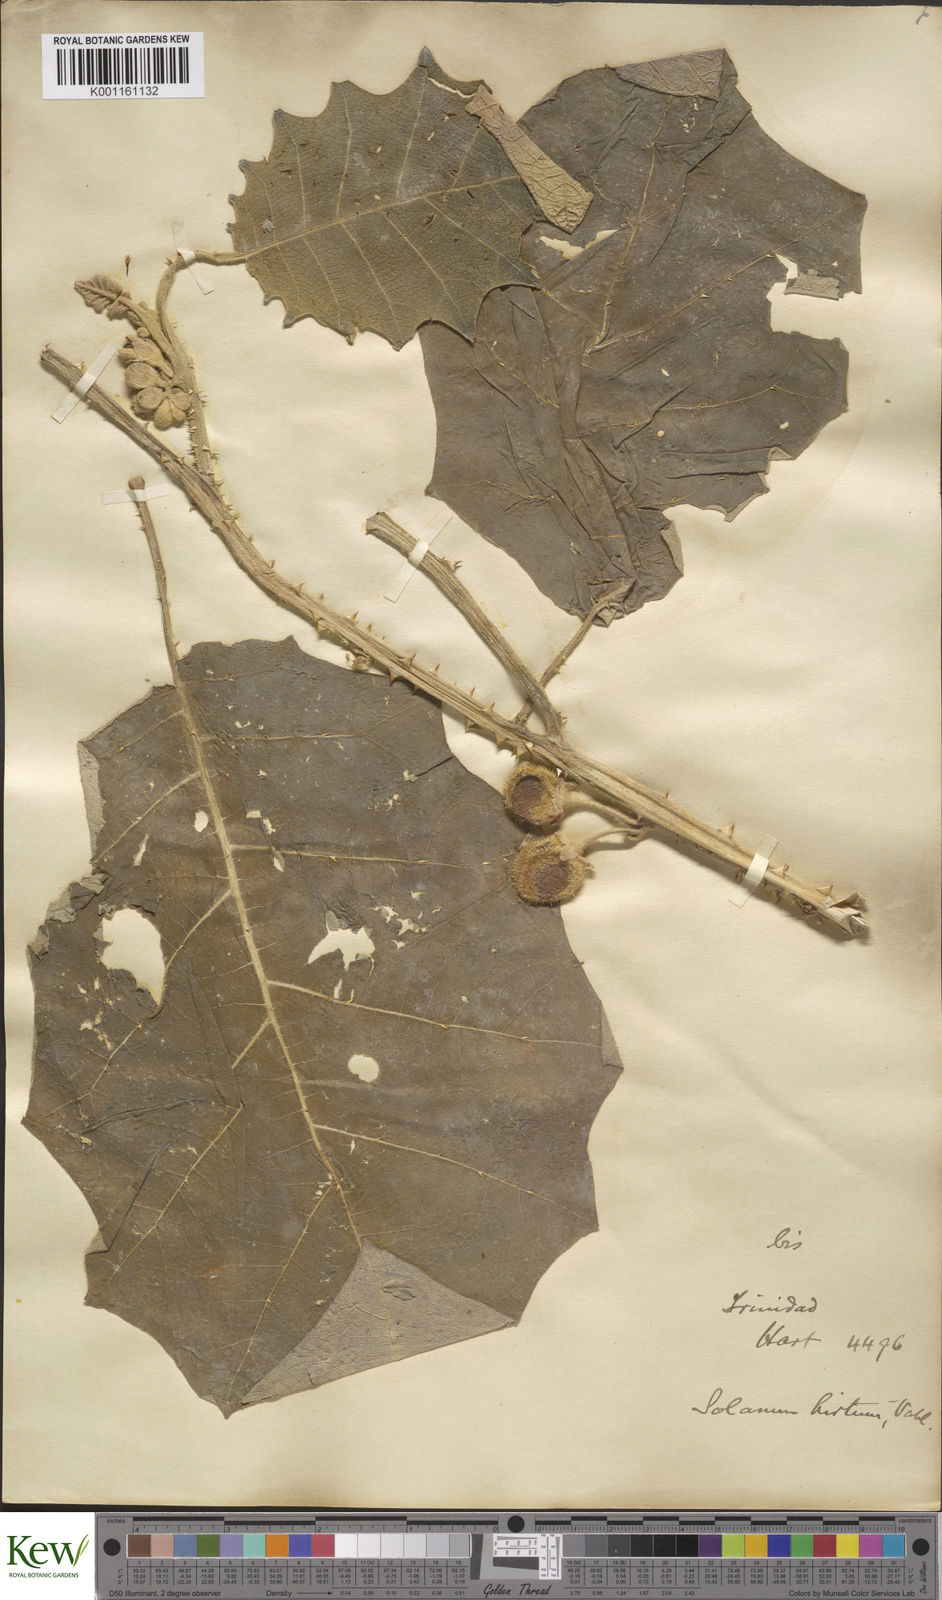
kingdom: Plantae
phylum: Tracheophyta
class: Magnoliopsida
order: Solanales
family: Solanaceae
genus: Solanum
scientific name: Solanum
